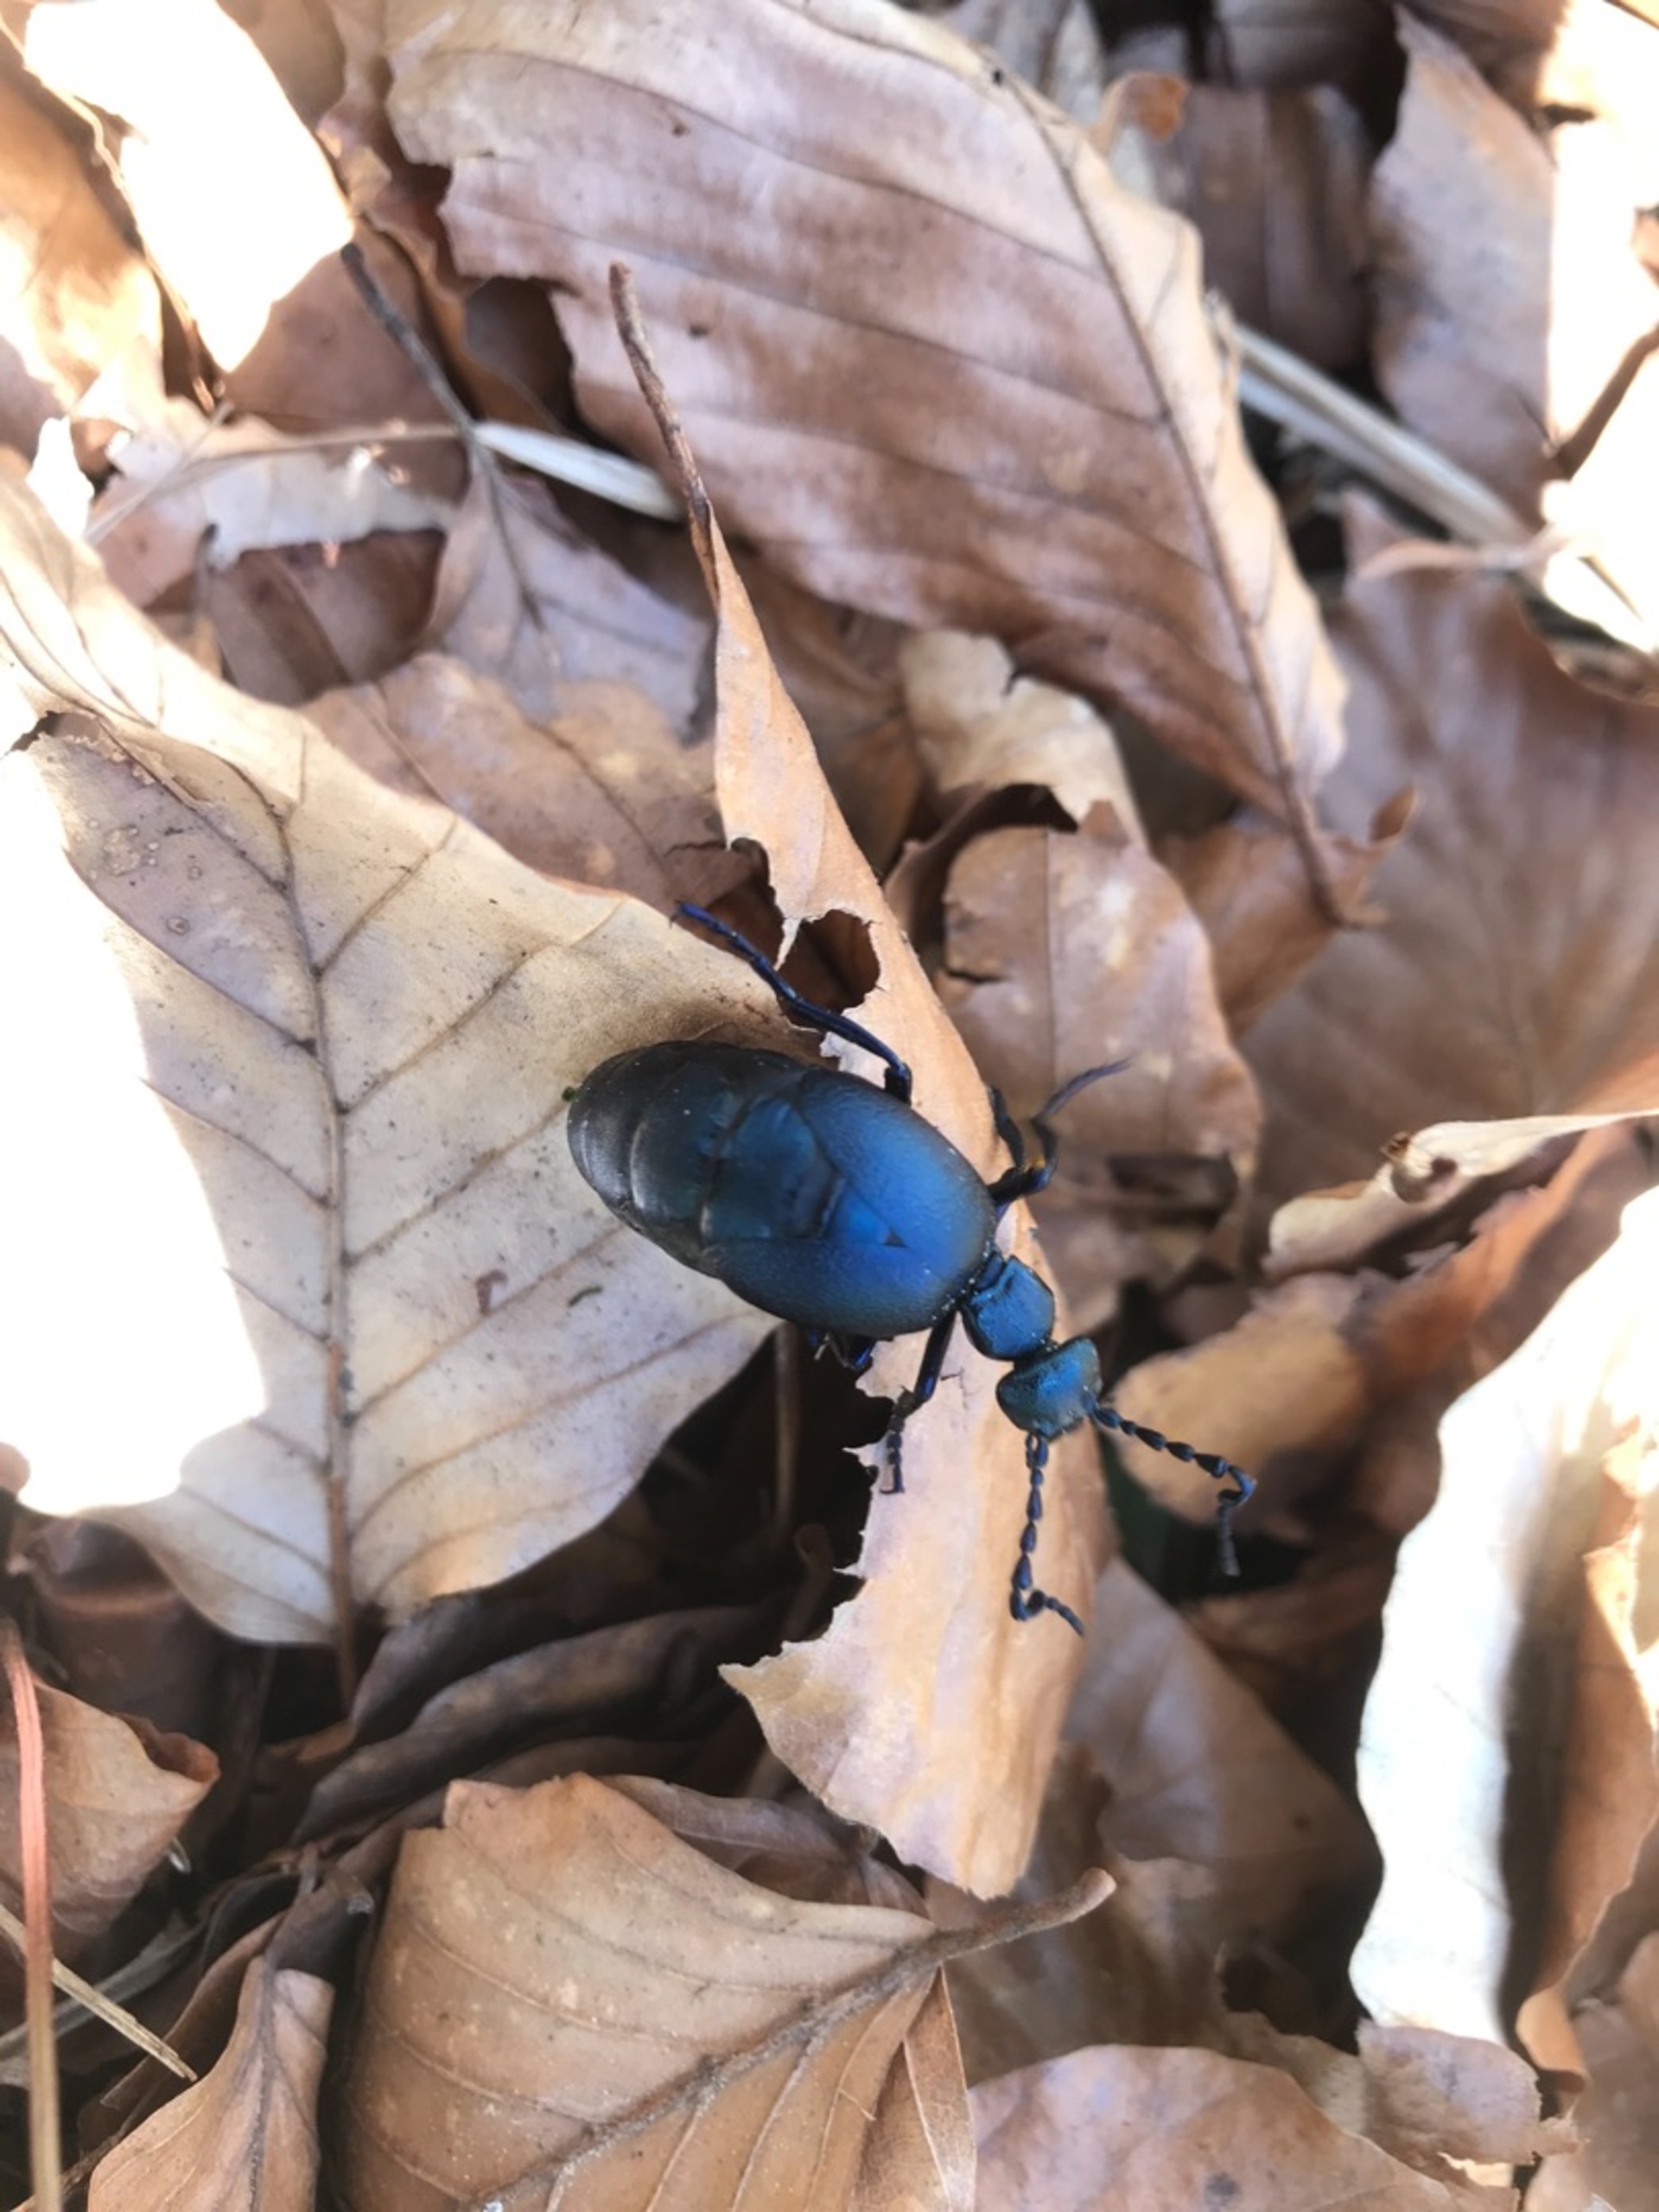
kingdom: Animalia
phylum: Arthropoda
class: Insecta
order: Coleoptera
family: Meloidae
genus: Meloe
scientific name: Meloe violaceus
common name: Blå oliebille
